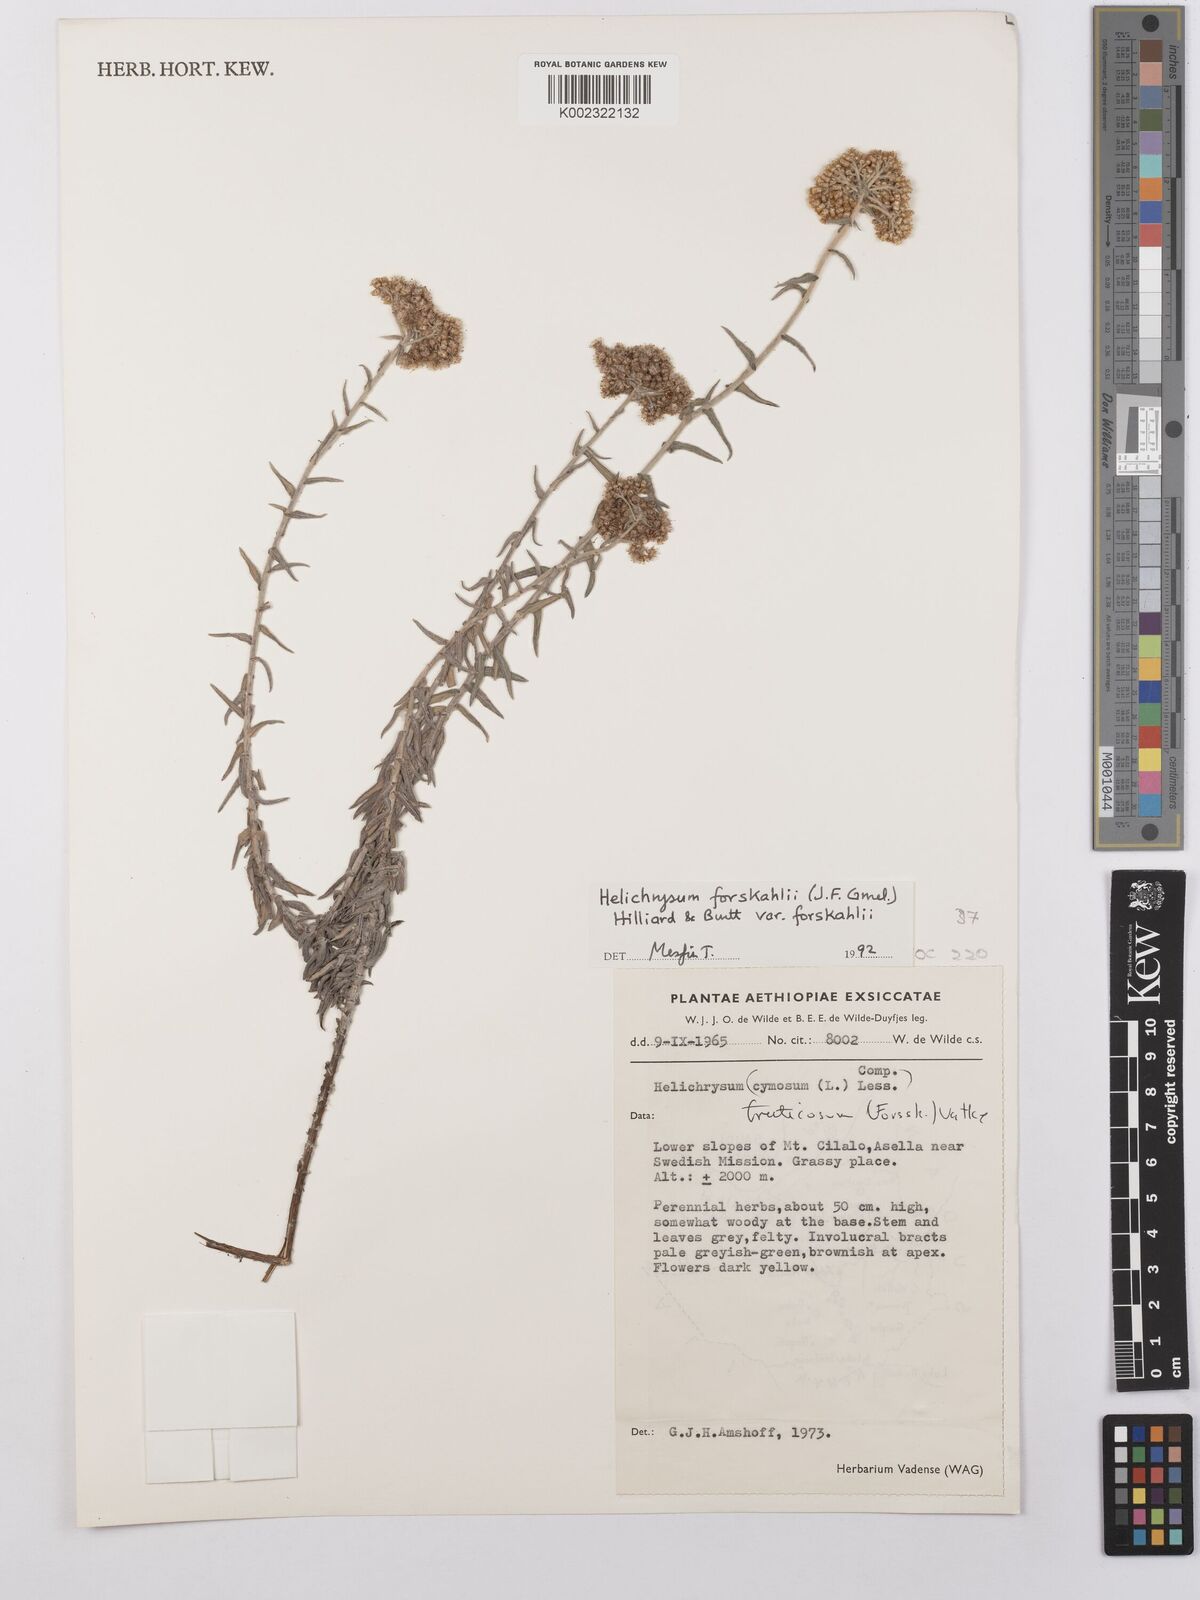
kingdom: Plantae
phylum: Tracheophyta
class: Magnoliopsida
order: Asterales
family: Asteraceae
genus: Helichrysum
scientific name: Helichrysum forskahlii
